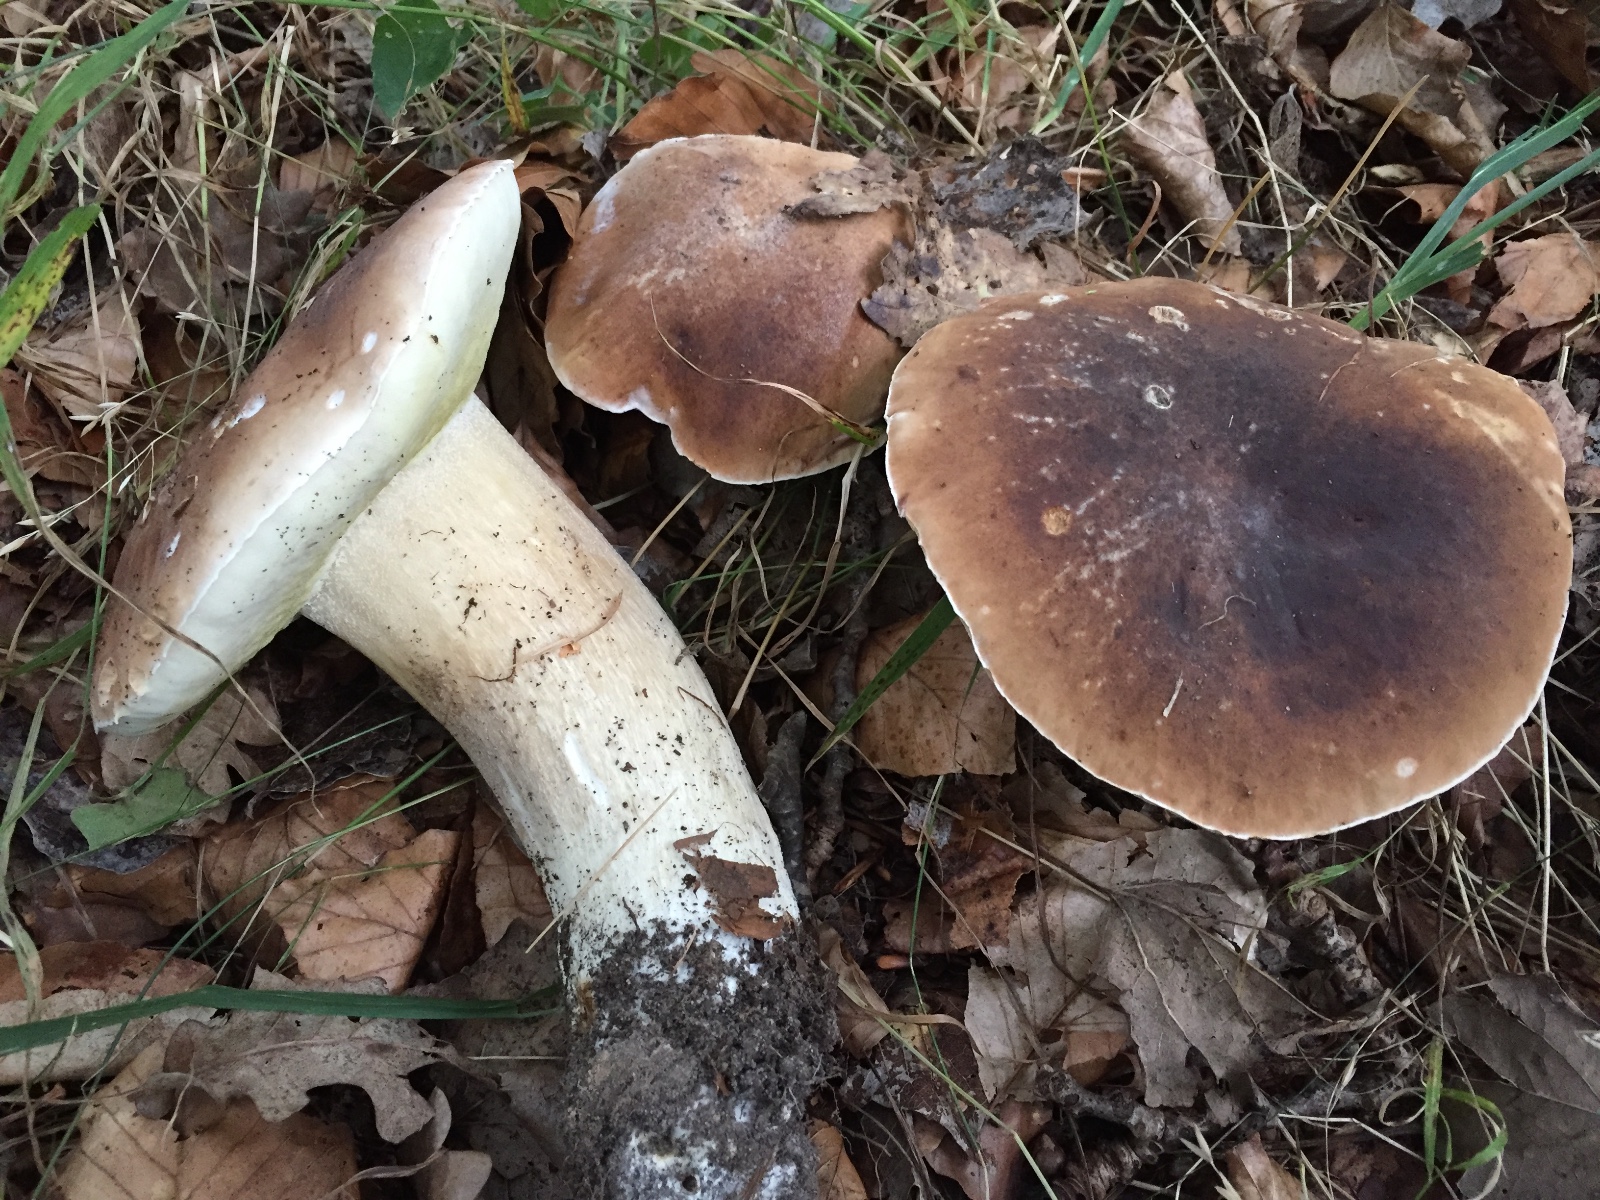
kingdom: Fungi
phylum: Basidiomycota
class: Agaricomycetes
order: Boletales
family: Boletaceae
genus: Boletus
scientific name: Boletus edulis
